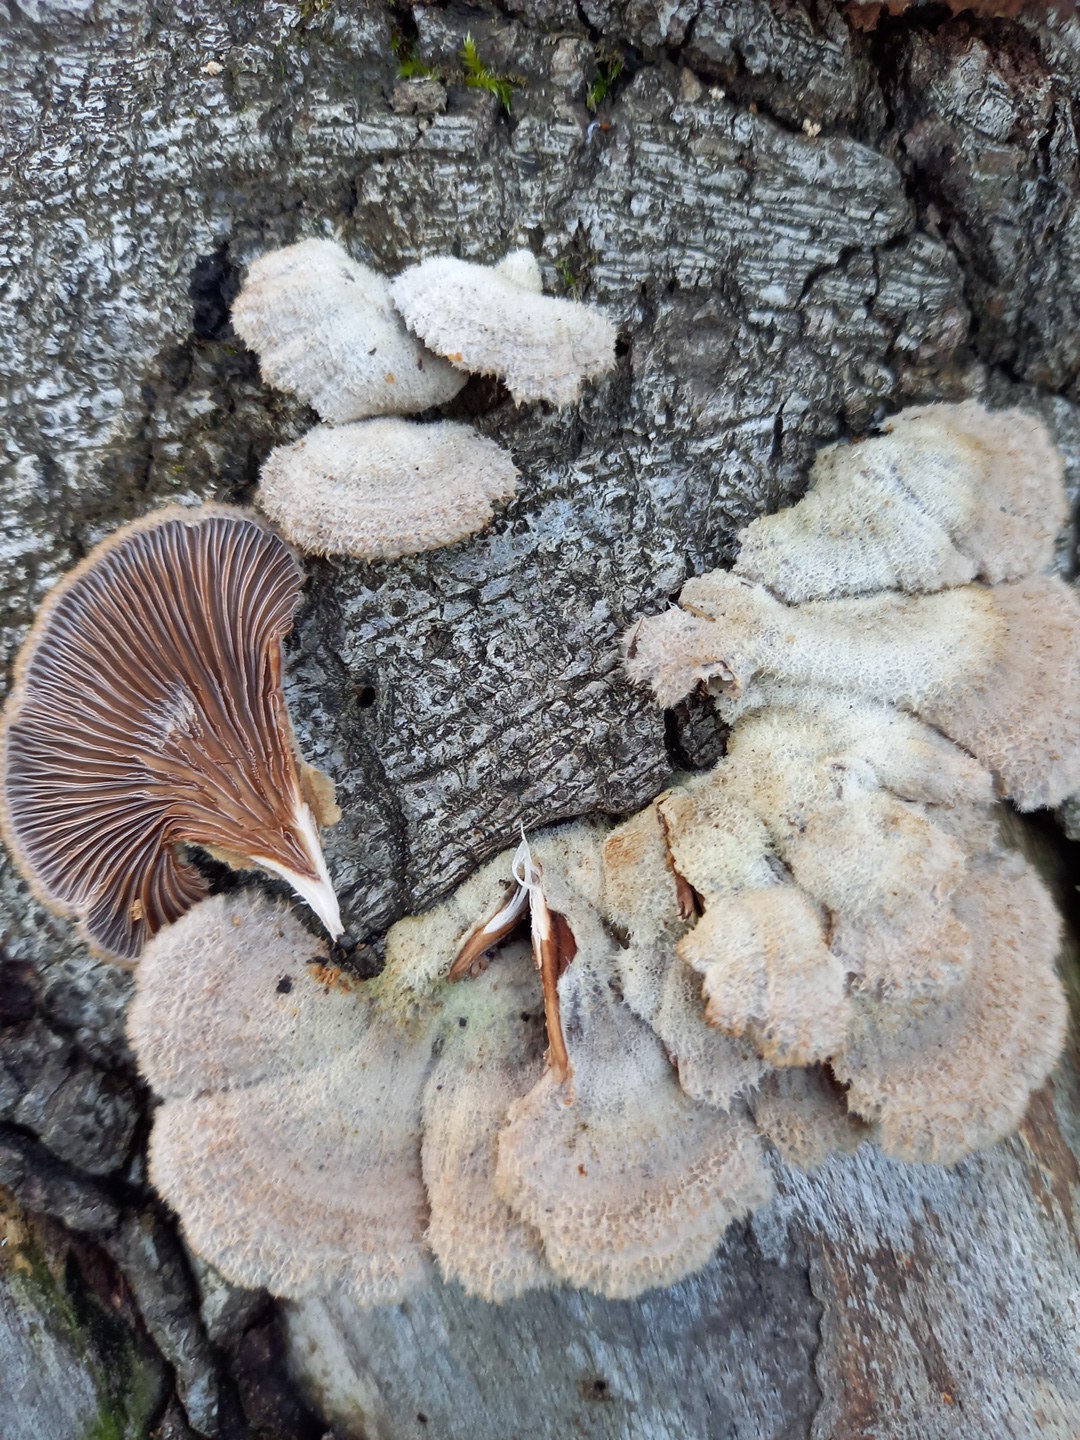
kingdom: Fungi
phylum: Basidiomycota
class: Agaricomycetes
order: Agaricales
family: Schizophyllaceae
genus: Schizophyllum
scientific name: Schizophyllum commune
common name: kløvblad
